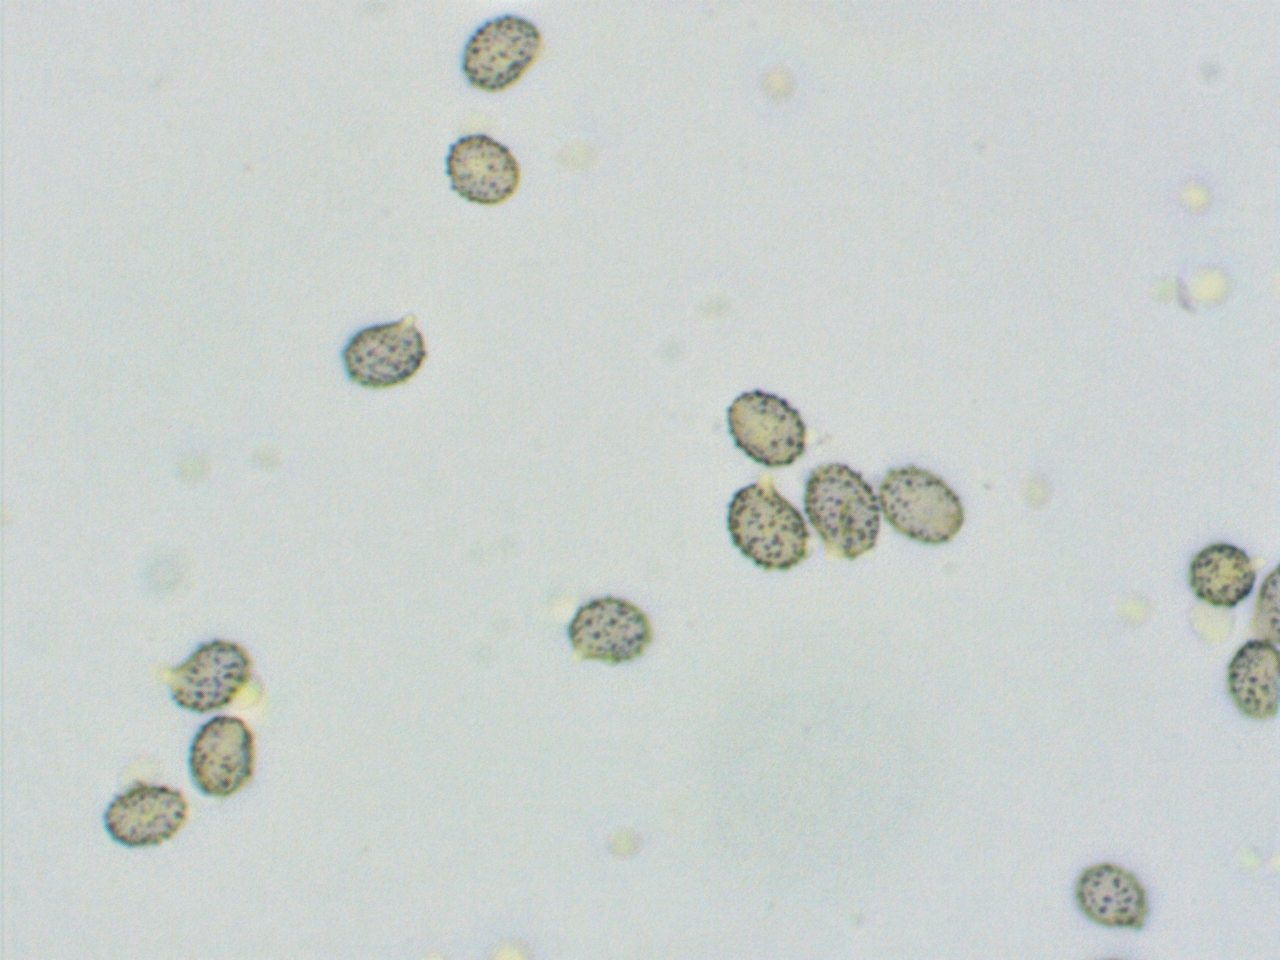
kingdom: Fungi
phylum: Basidiomycota
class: Agaricomycetes
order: Russulales
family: Russulaceae
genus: Russula
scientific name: Russula parazurea
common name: blågrå skørhat
